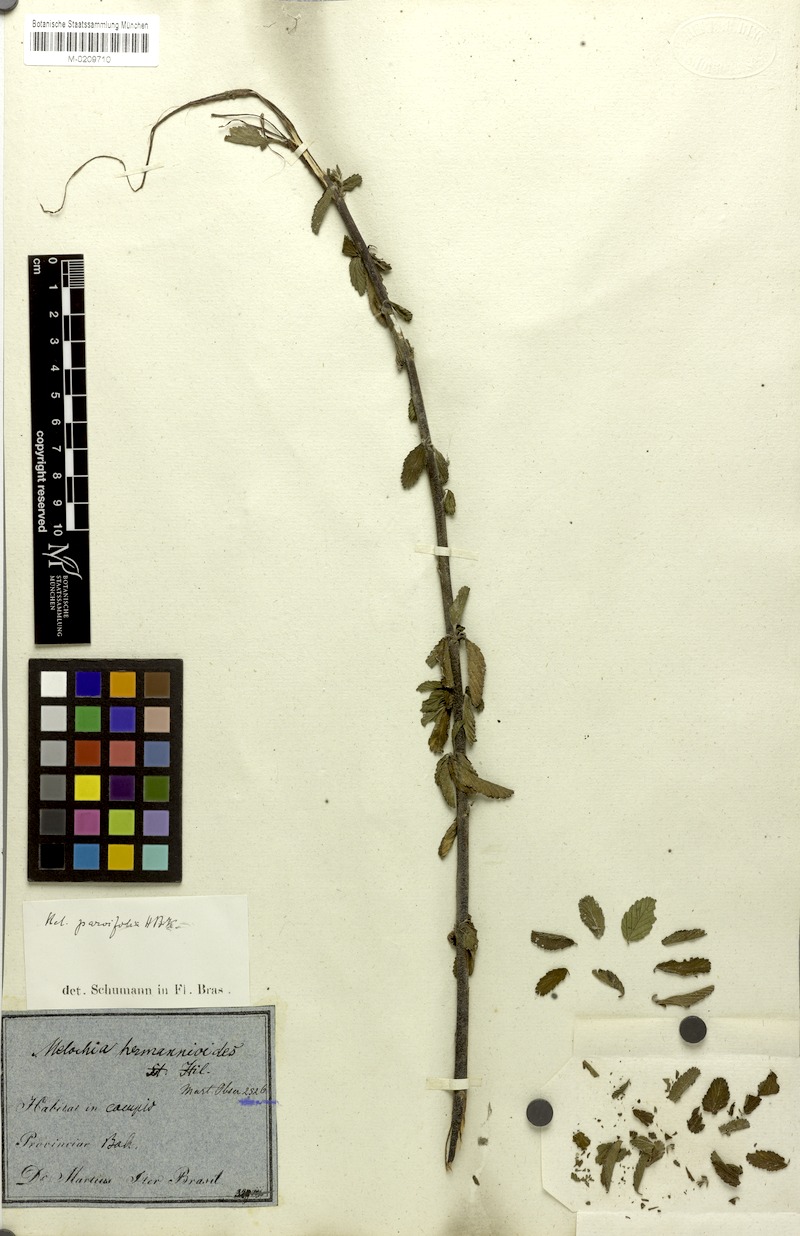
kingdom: Plantae
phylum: Tracheophyta
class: Magnoliopsida
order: Malvales
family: Malvaceae
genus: Melochia
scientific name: Melochia parvifolia
